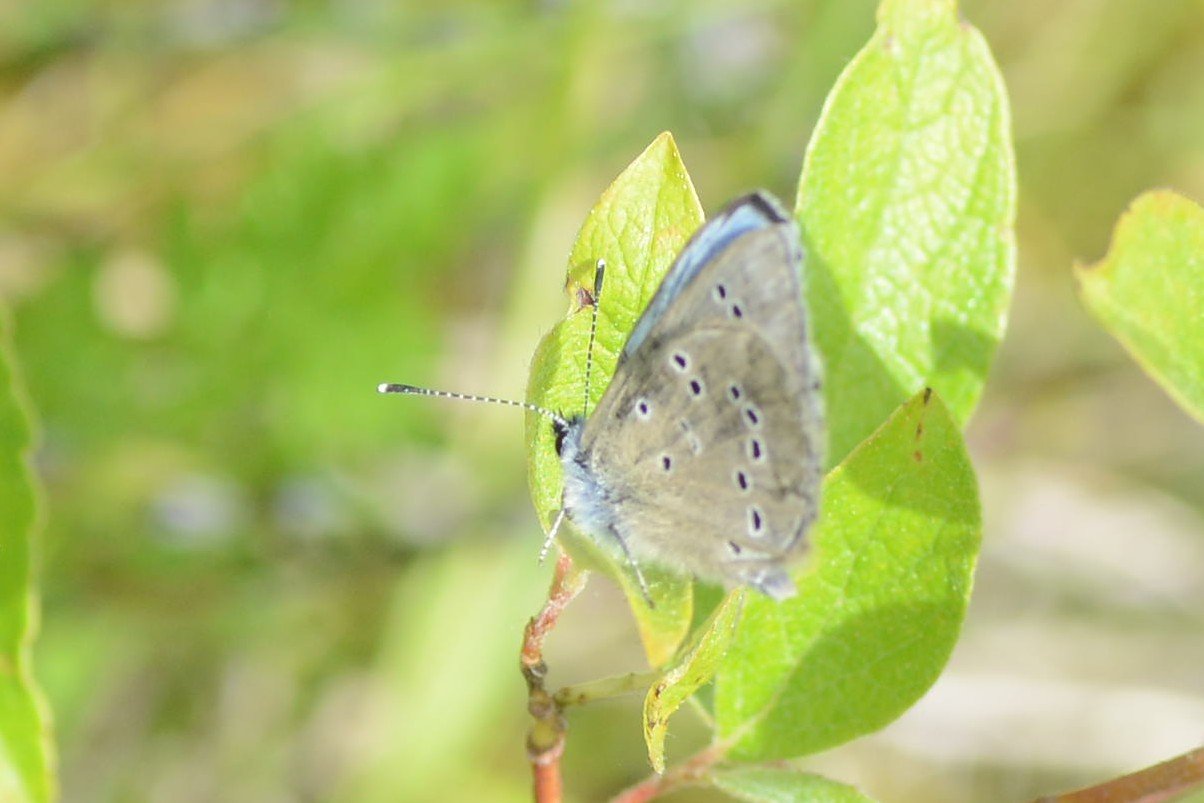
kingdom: Animalia
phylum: Arthropoda
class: Insecta
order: Lepidoptera
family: Lycaenidae
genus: Glaucopsyche
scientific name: Glaucopsyche lygdamus
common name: Silvery Blue
